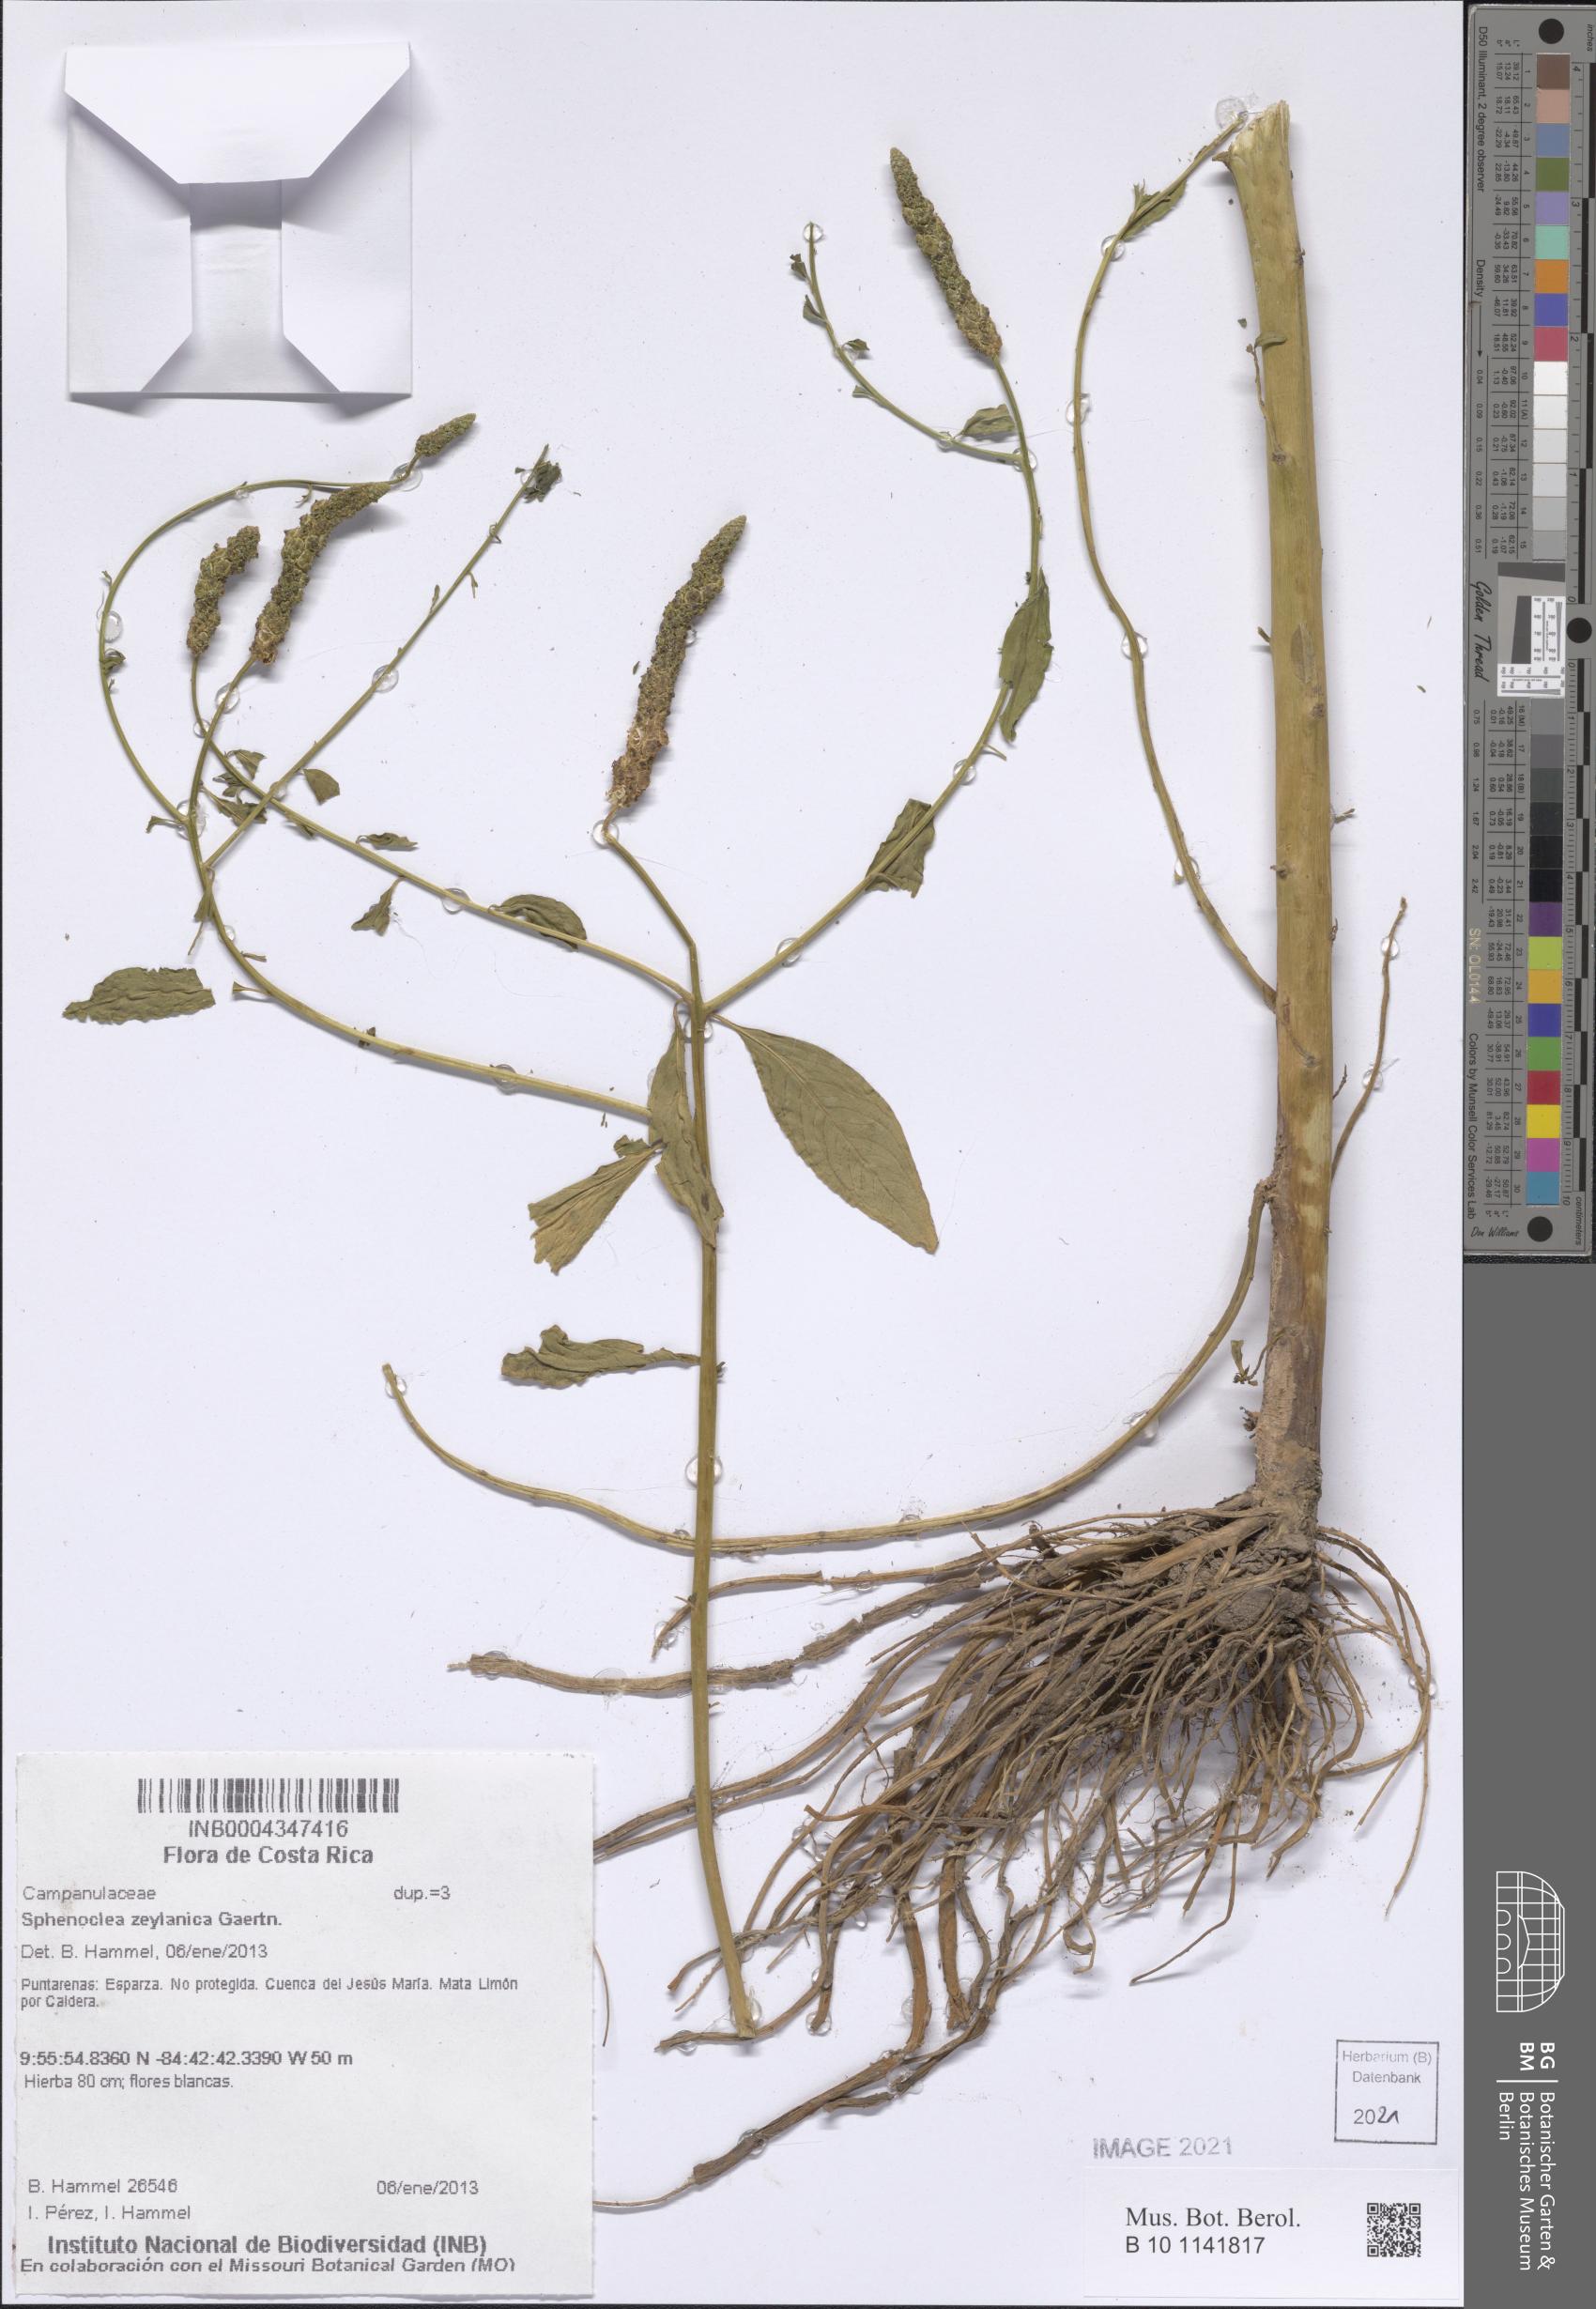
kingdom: Plantae
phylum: Tracheophyta
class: Magnoliopsida
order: Solanales
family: Sphenocleaceae
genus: Sphenoclea
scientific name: Sphenoclea zeylanica
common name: Chickenspike
